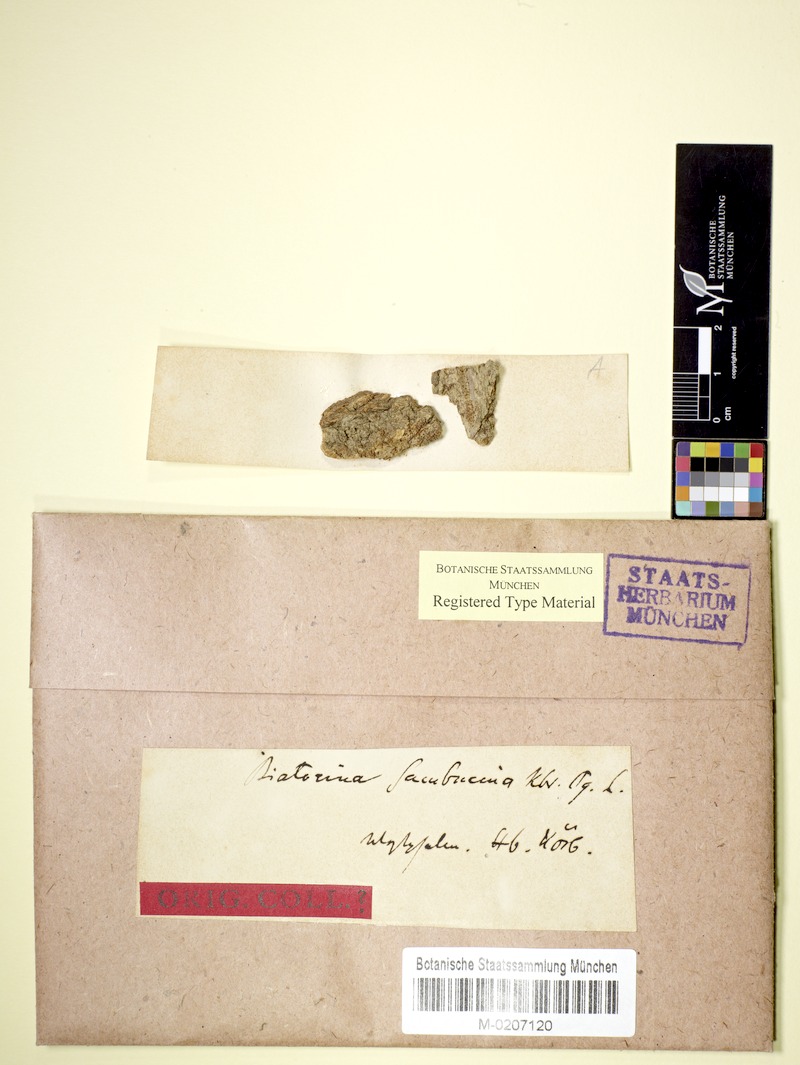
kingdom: Fungi
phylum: Ascomycota
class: Lecanoromycetes
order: Lecanorales
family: Ramalinaceae
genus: Lecania
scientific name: Lecania cyrtella
